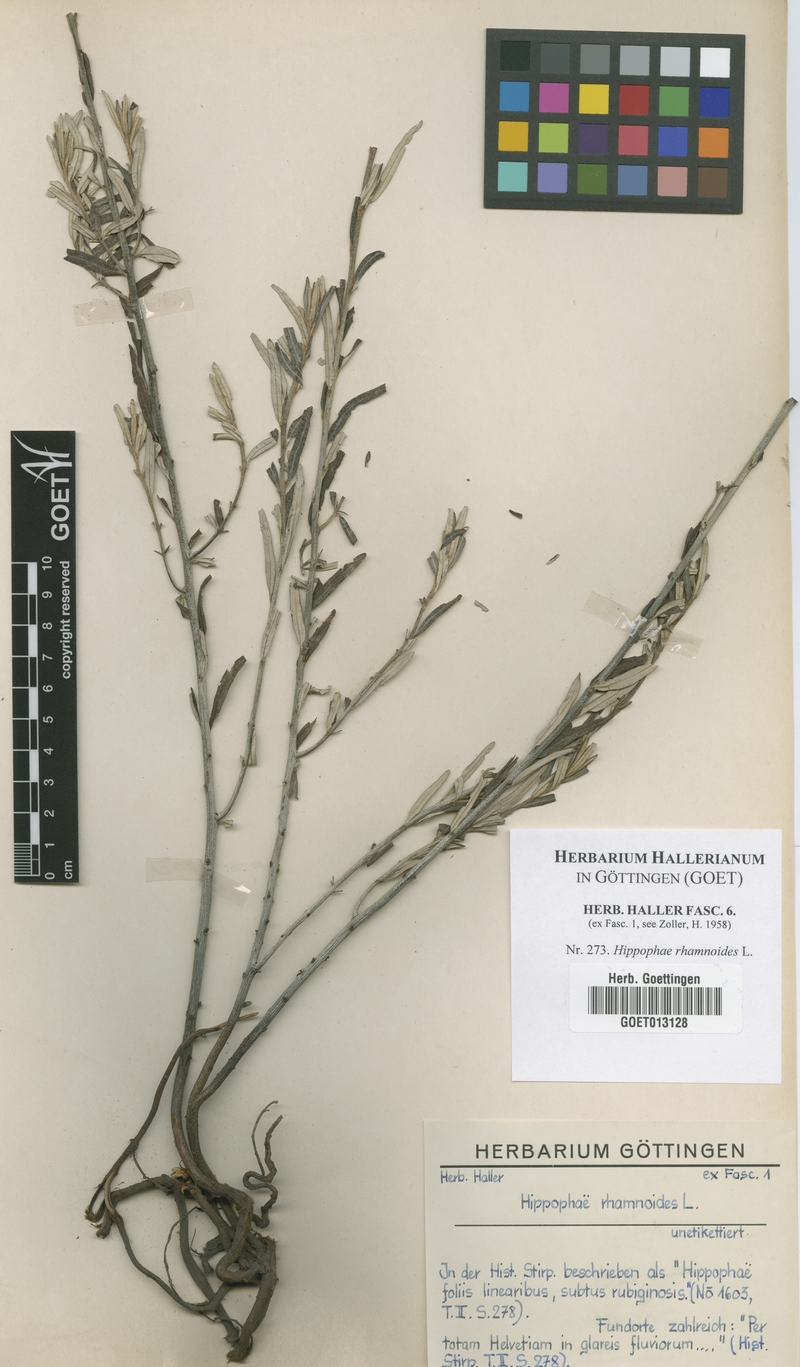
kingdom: Plantae
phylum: Tracheophyta
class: Magnoliopsida
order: Rosales
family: Elaeagnaceae
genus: Hippophae
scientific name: Hippophae rhamnoides
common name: Sea-buckthorn
